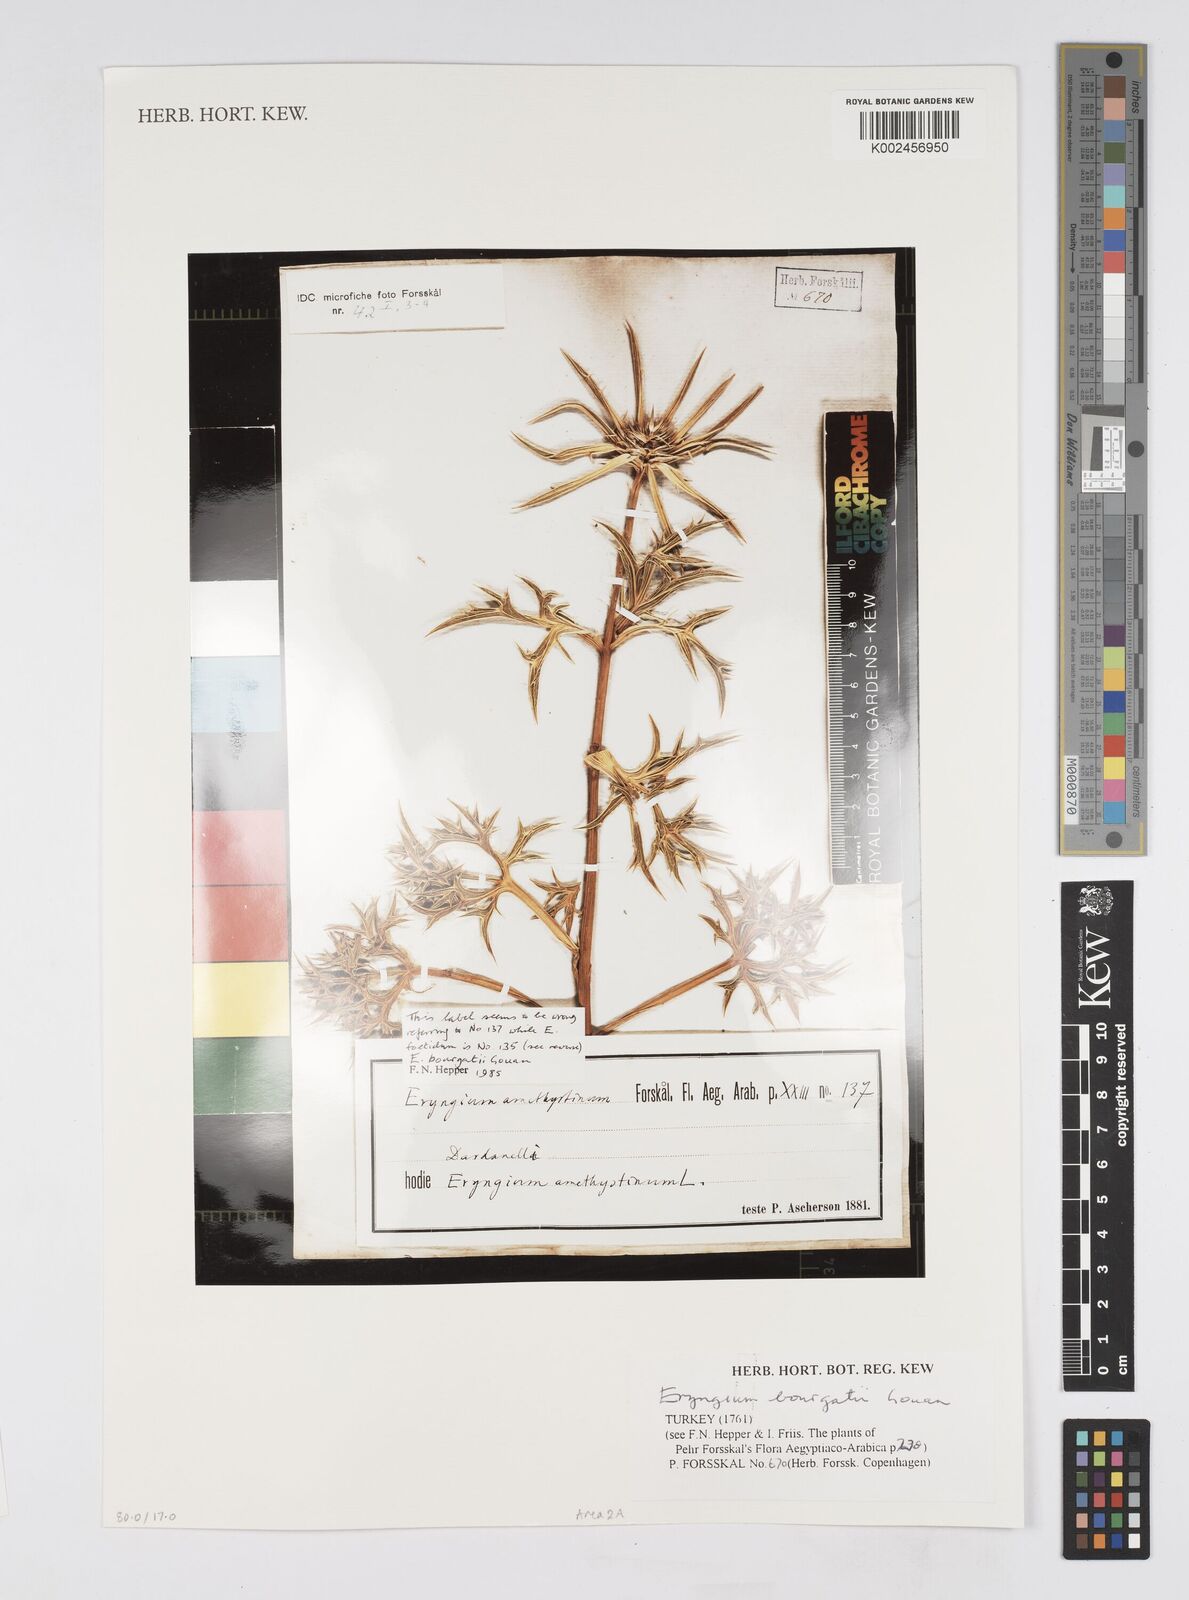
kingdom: Plantae
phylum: Tracheophyta
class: Magnoliopsida
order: Apiales
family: Apiaceae
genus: Eryngium
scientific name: Eryngium bourgatii
